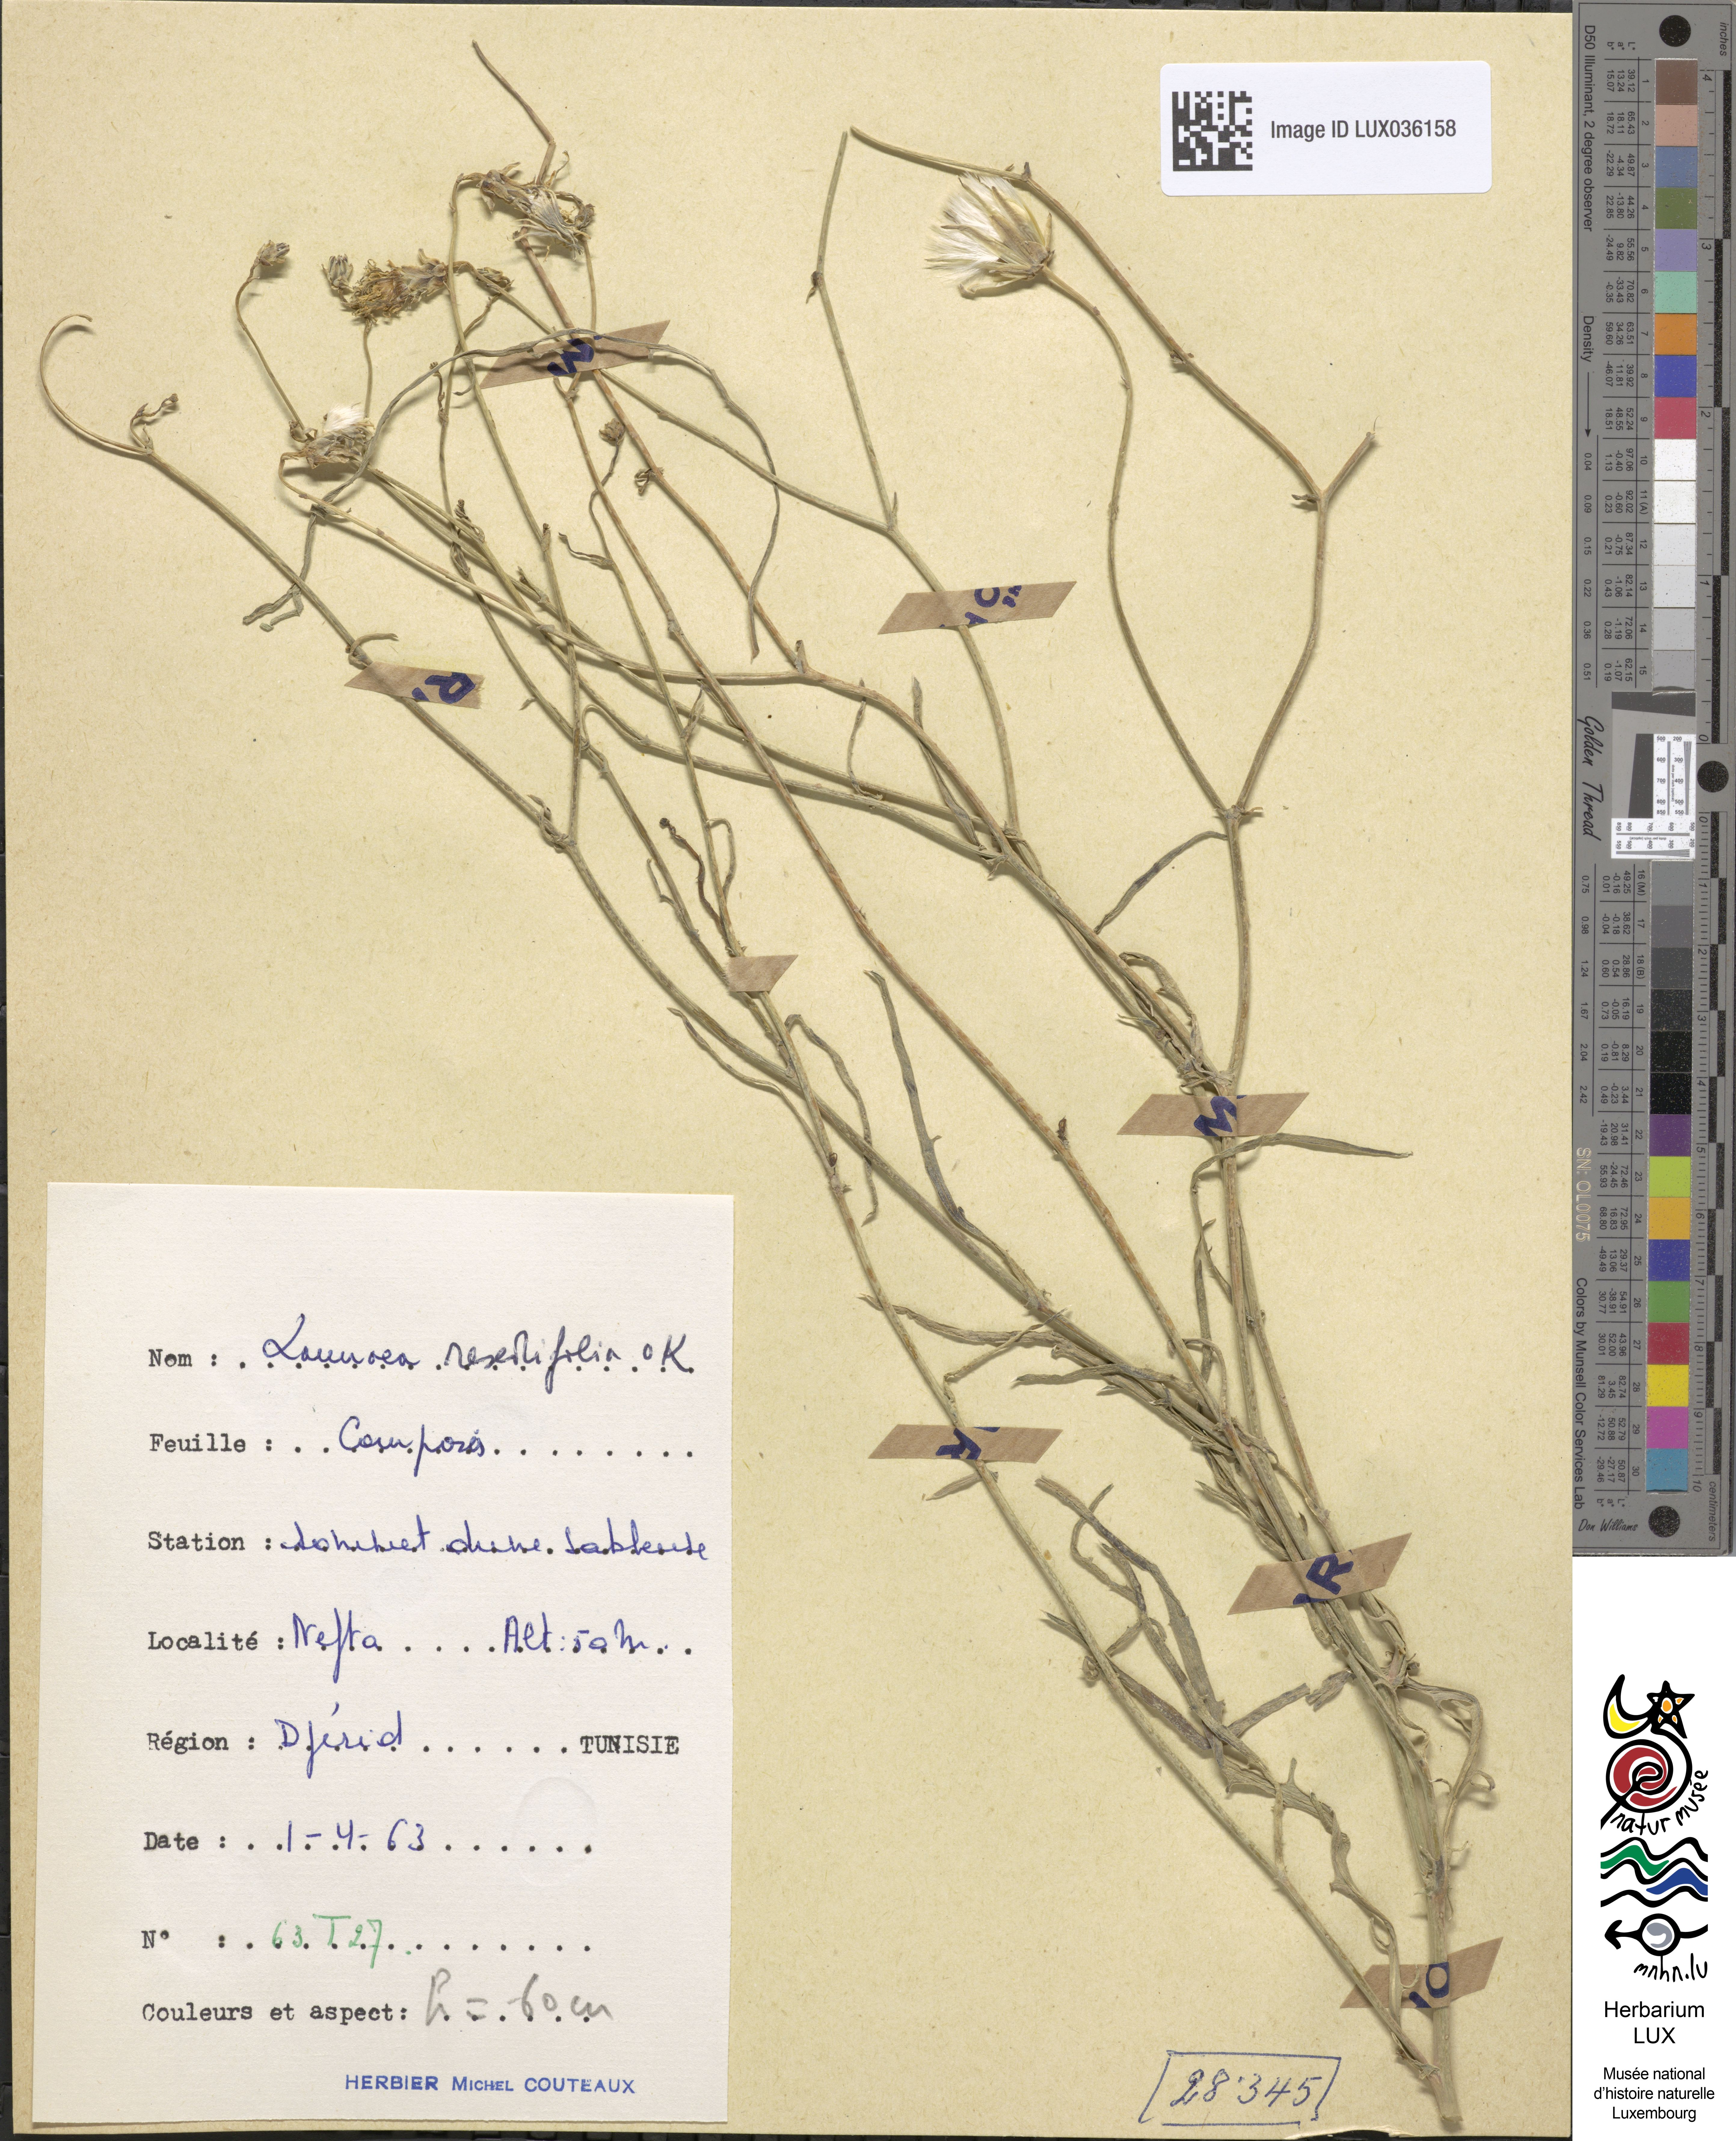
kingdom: Plantae
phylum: Tracheophyta
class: Magnoliopsida
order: Asterales
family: Asteraceae
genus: Launaea
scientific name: Launaea fragilis
